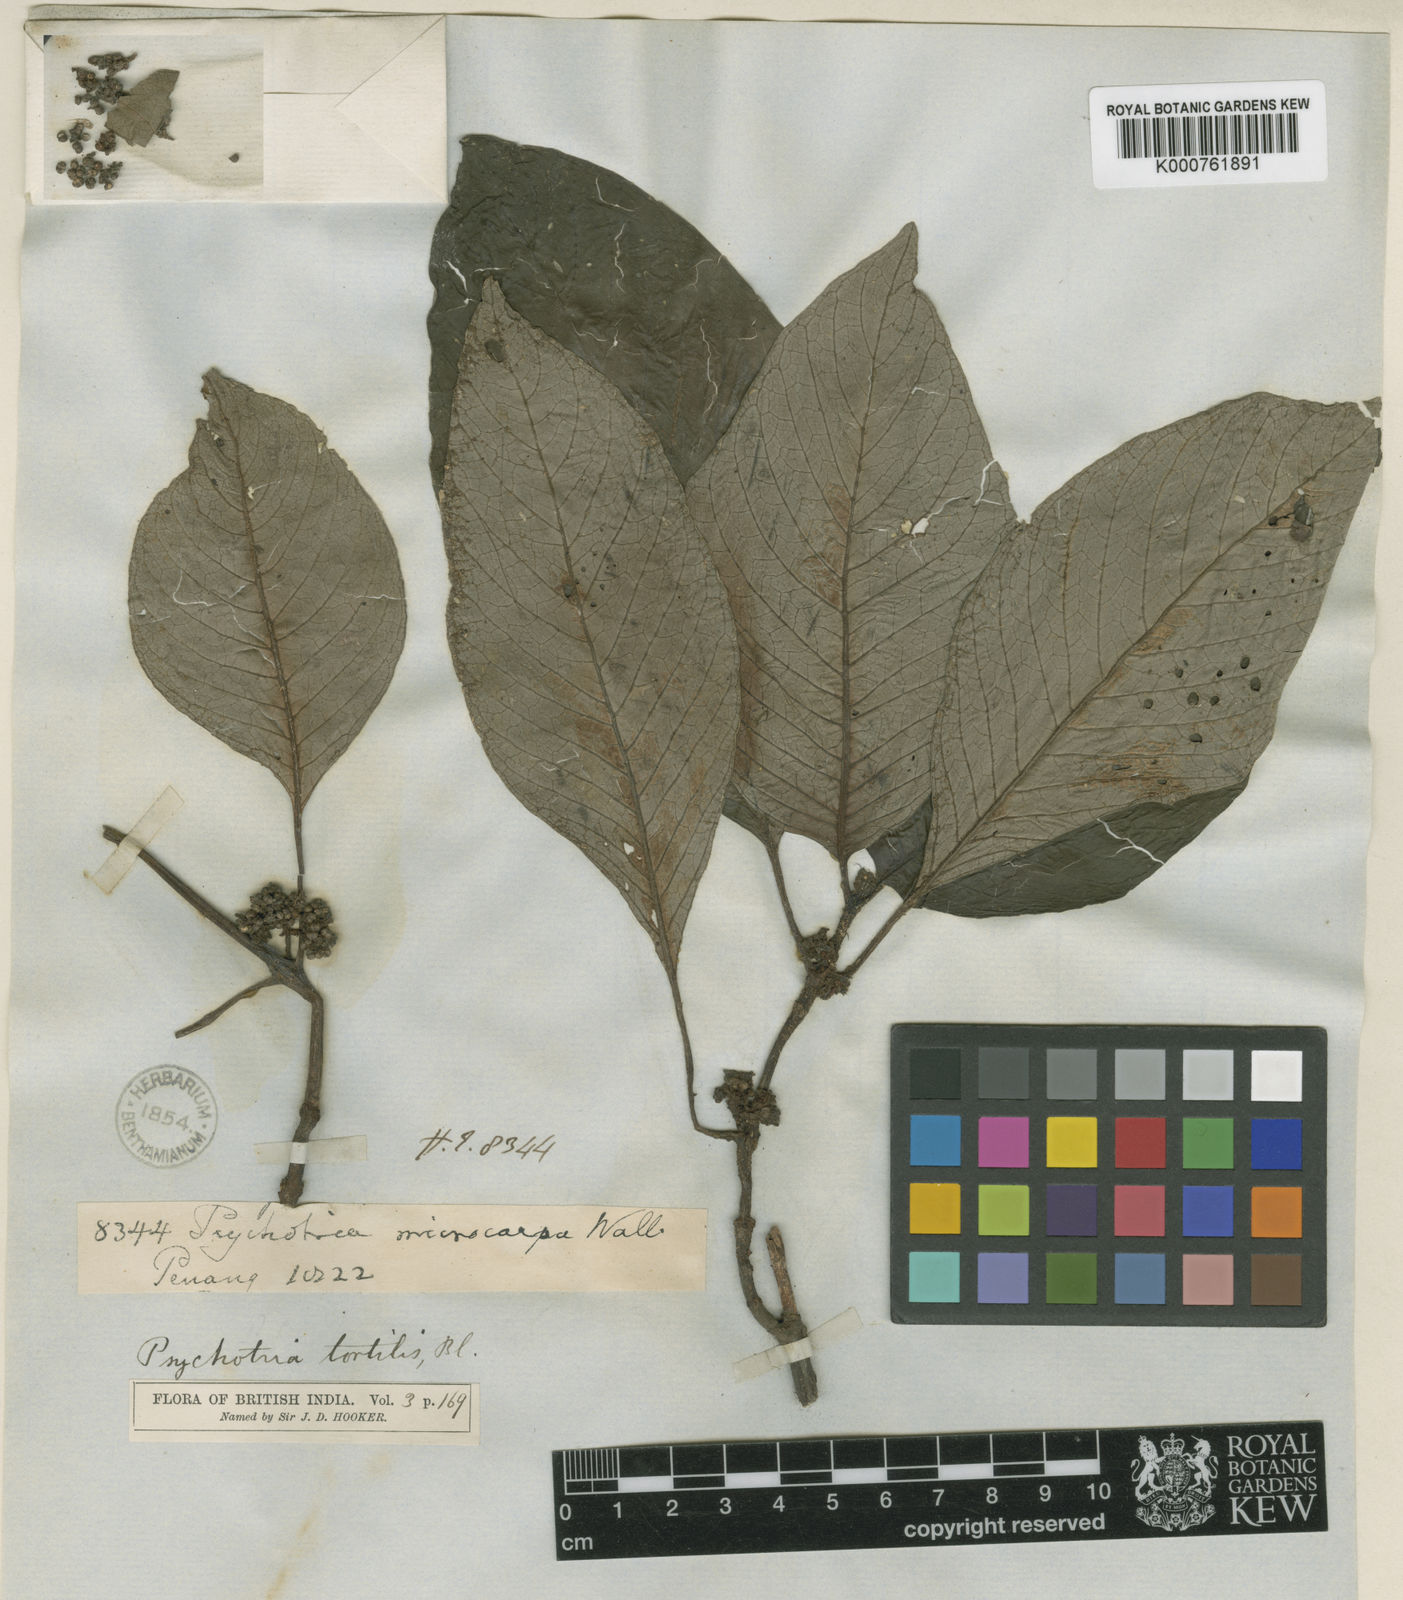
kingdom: Plantae
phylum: Tracheophyta
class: Magnoliopsida
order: Gentianales
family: Rubiaceae
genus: Streblosa
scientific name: Streblosa microcarpa
